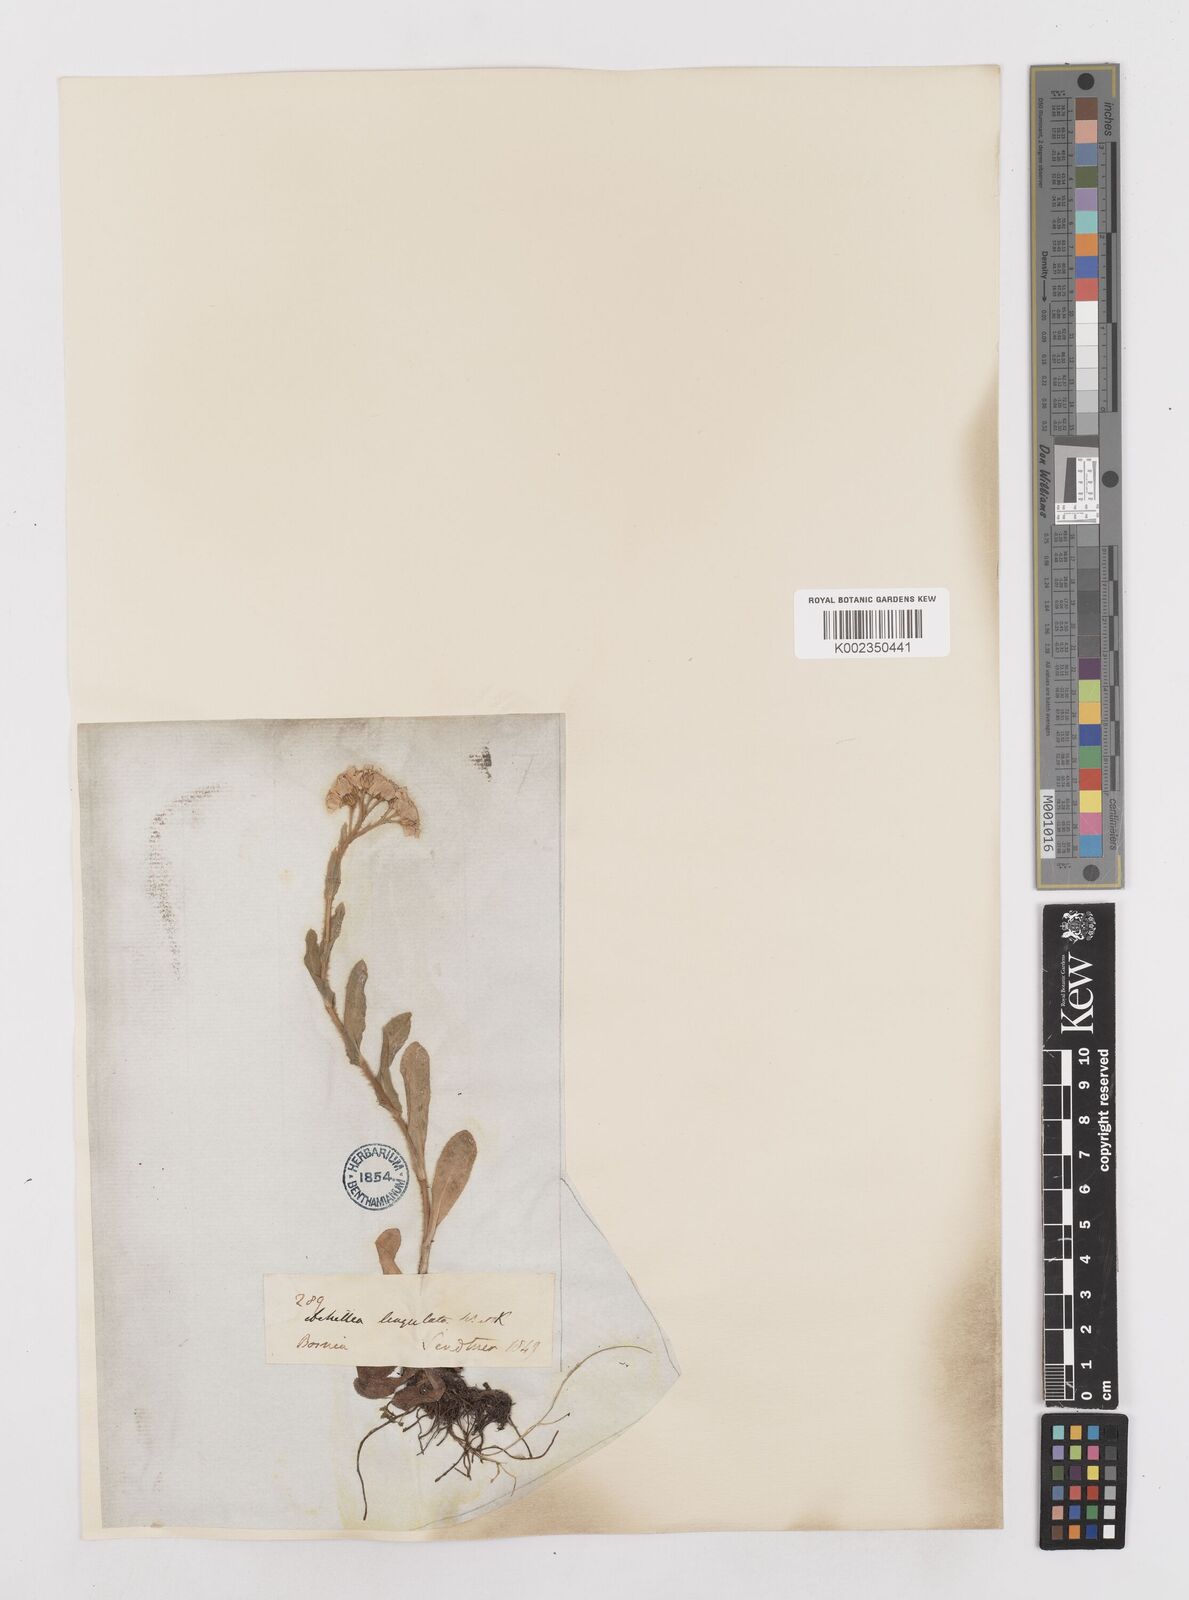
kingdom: Plantae
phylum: Tracheophyta
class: Magnoliopsida
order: Asterales
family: Asteraceae
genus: Achillea
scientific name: Achillea lingulata
